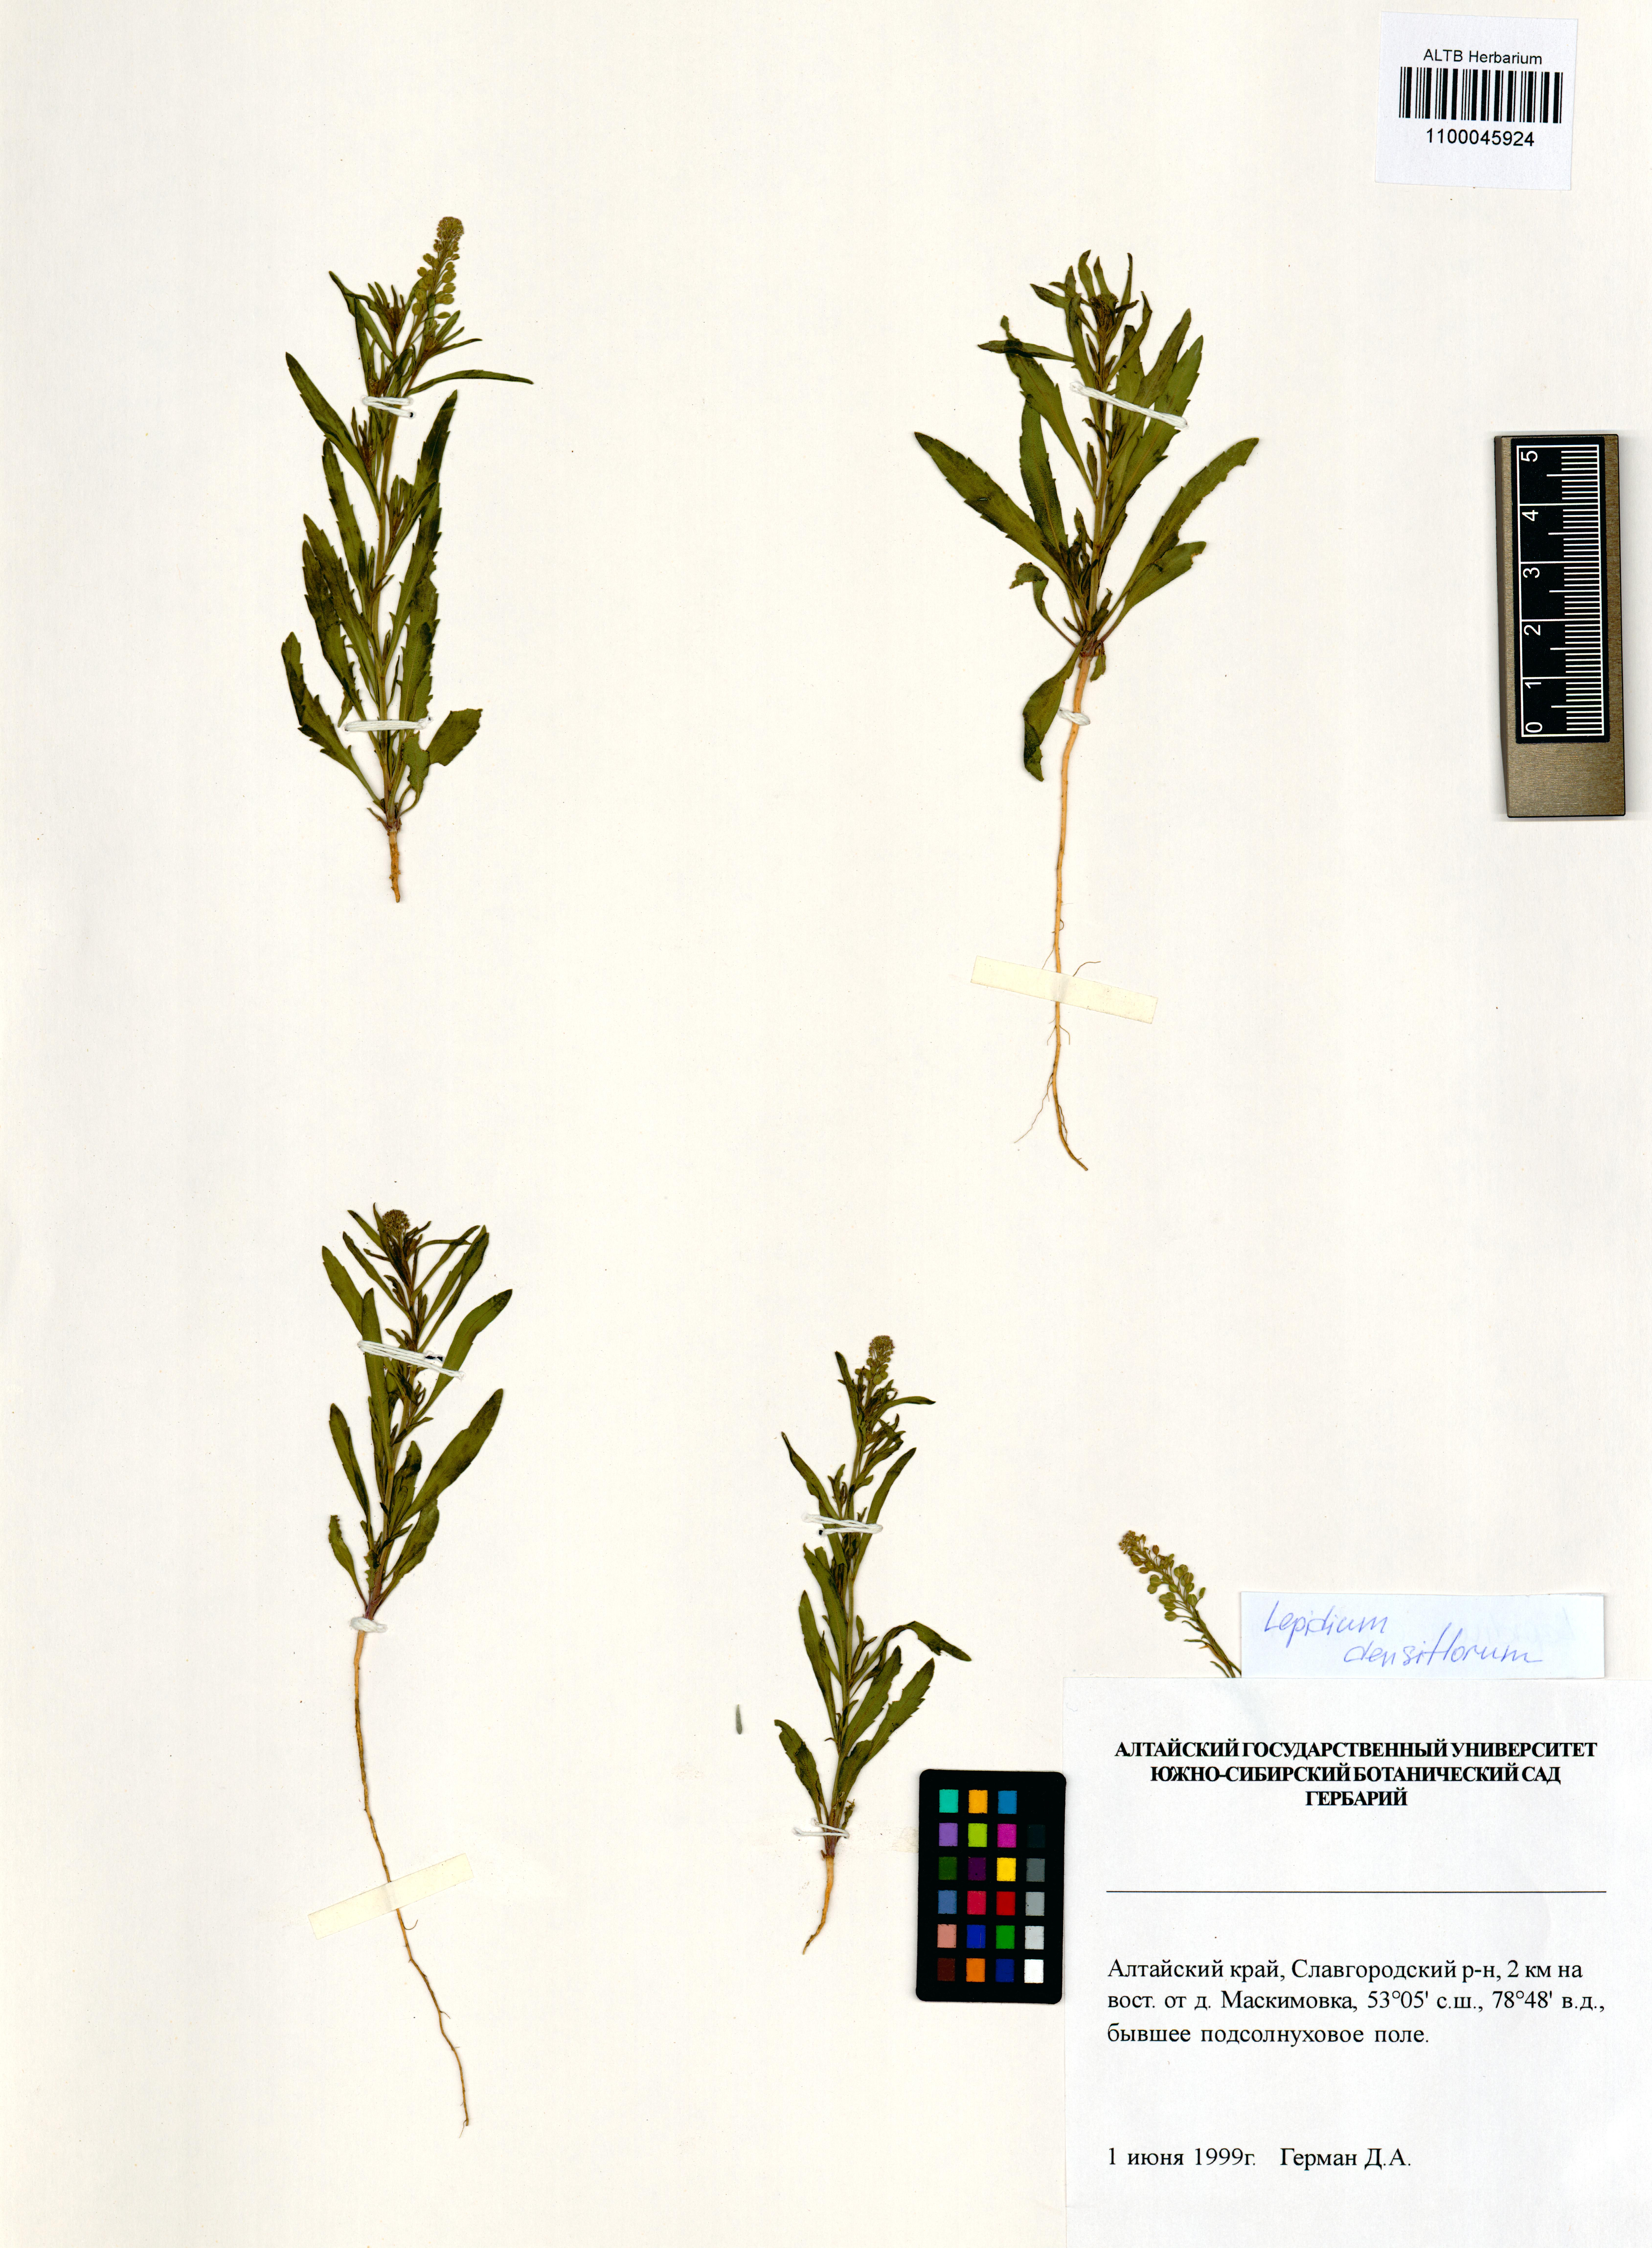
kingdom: Plantae
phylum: Tracheophyta
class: Magnoliopsida
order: Brassicales
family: Brassicaceae
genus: Lepidium
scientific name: Lepidium densiflorum
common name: Miner's pepperwort
